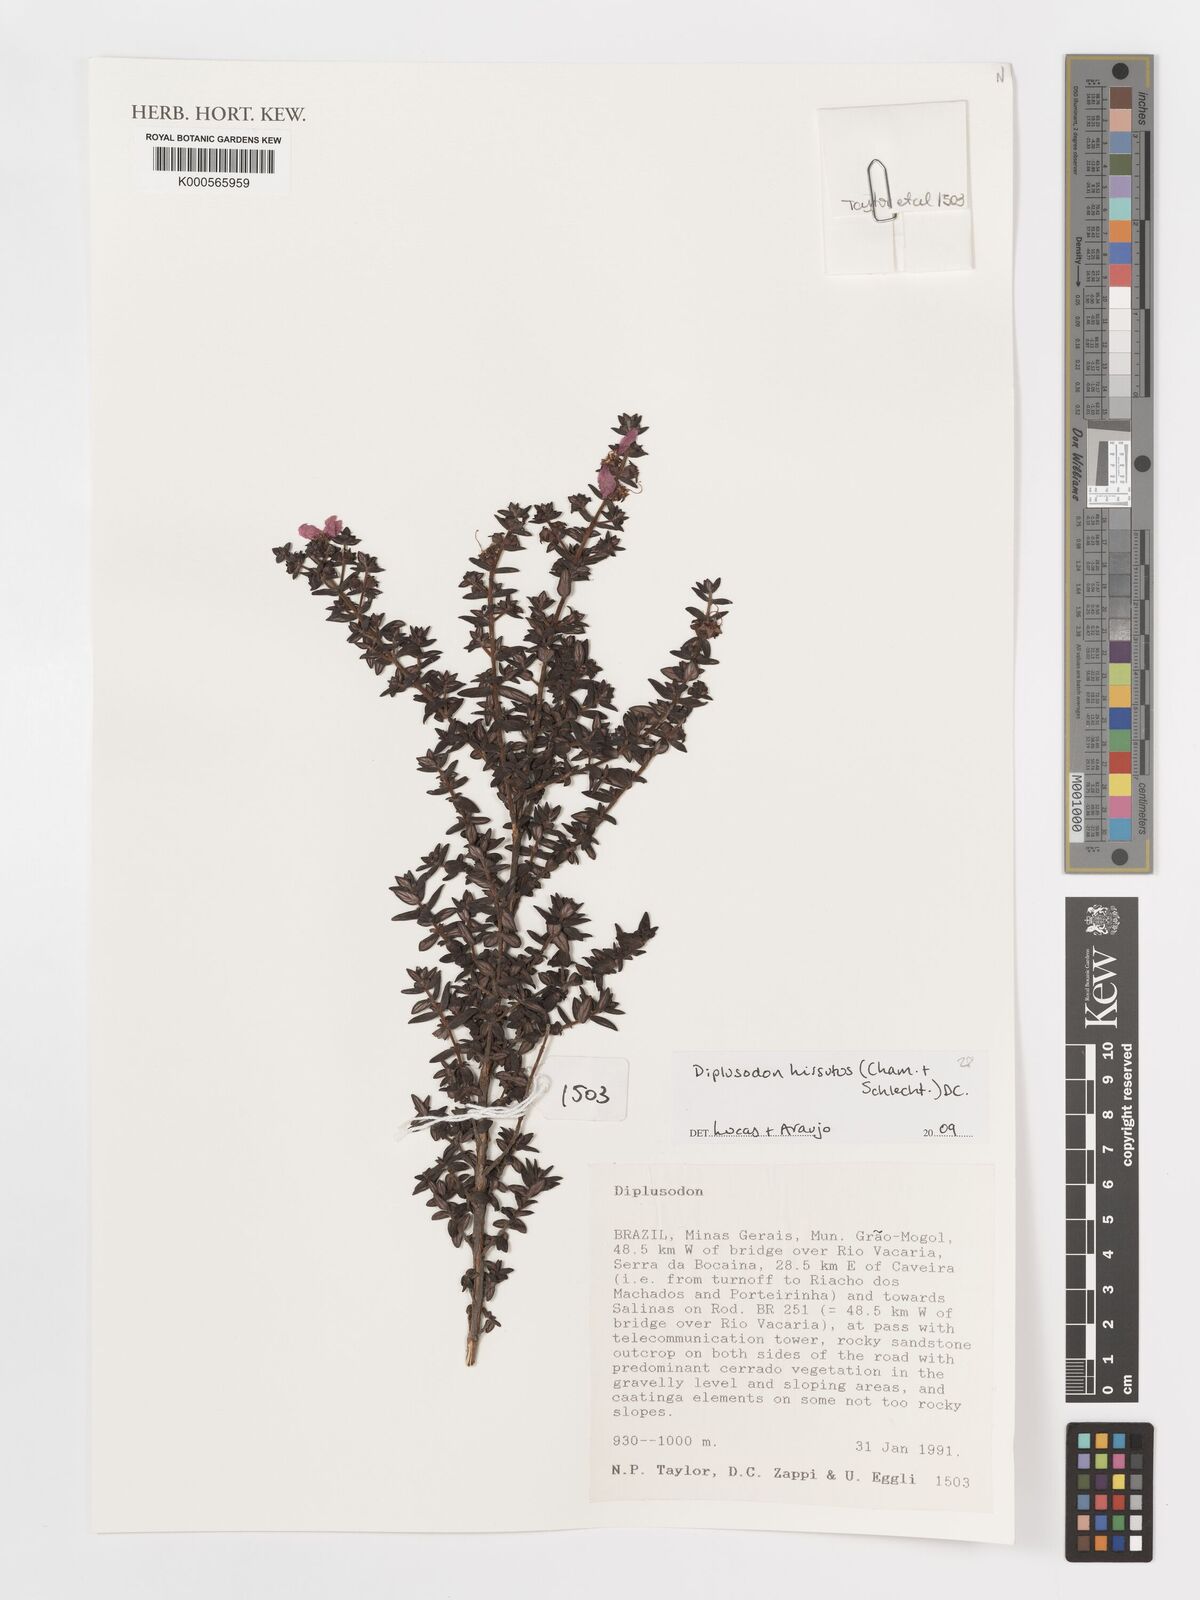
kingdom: Plantae
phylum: Tracheophyta
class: Magnoliopsida
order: Myrtales
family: Lythraceae
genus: Diplusodon
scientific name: Diplusodon hirsutus
